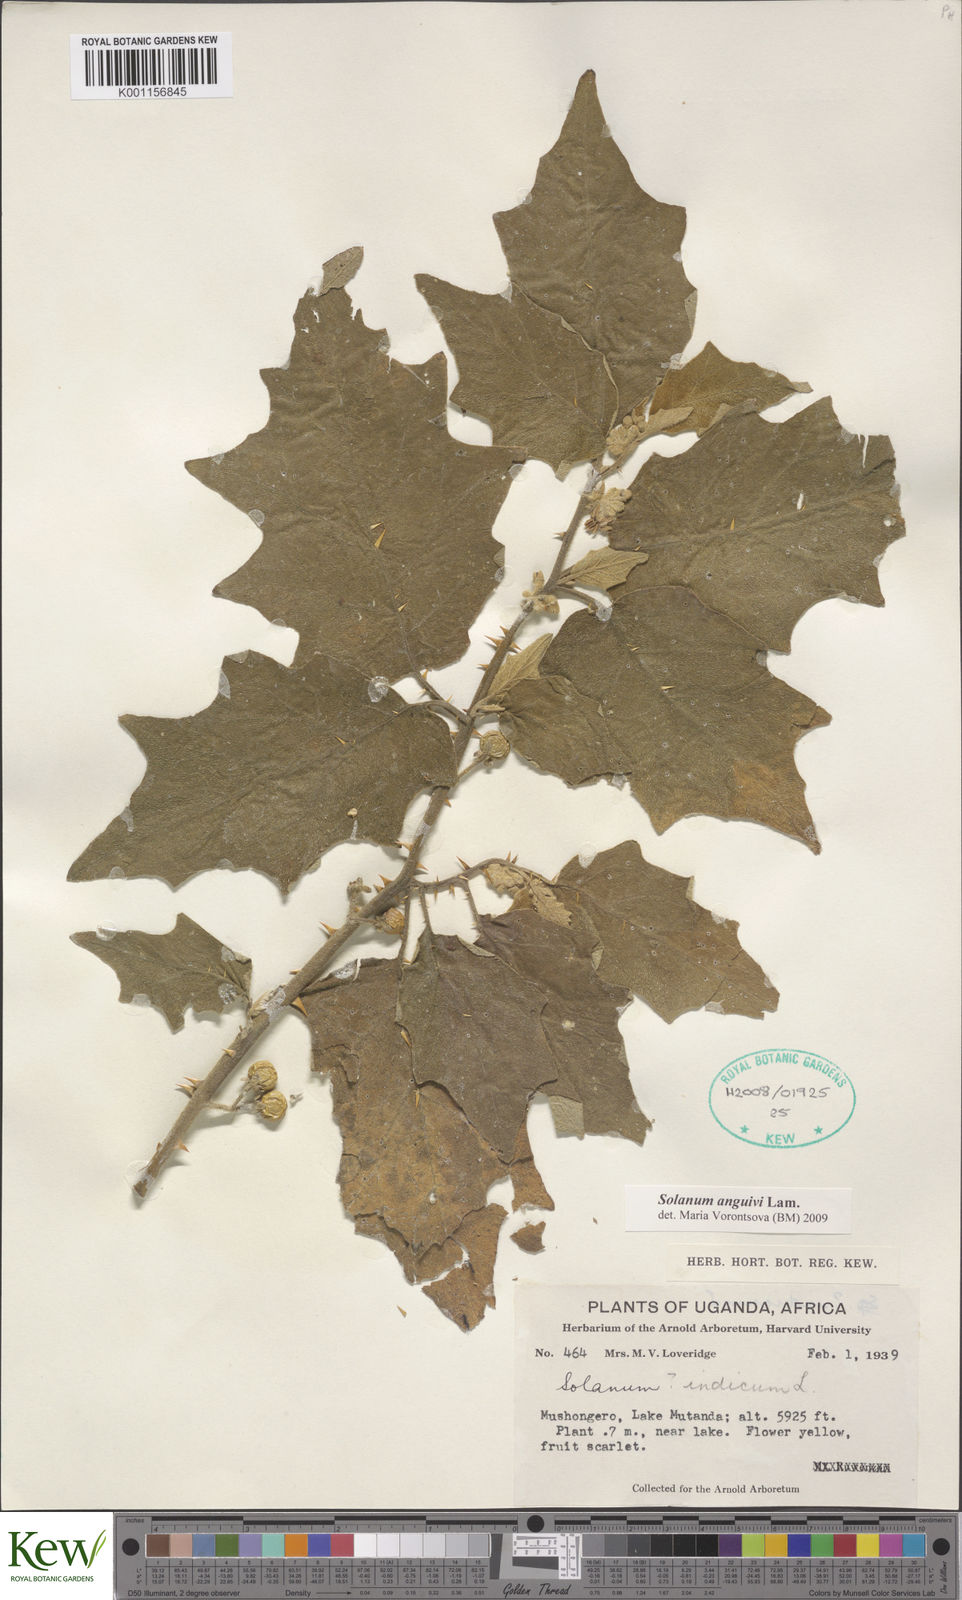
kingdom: Plantae
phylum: Tracheophyta
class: Magnoliopsida
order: Solanales
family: Solanaceae
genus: Solanum
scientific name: Solanum anguivi
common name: Forest bitterberry
